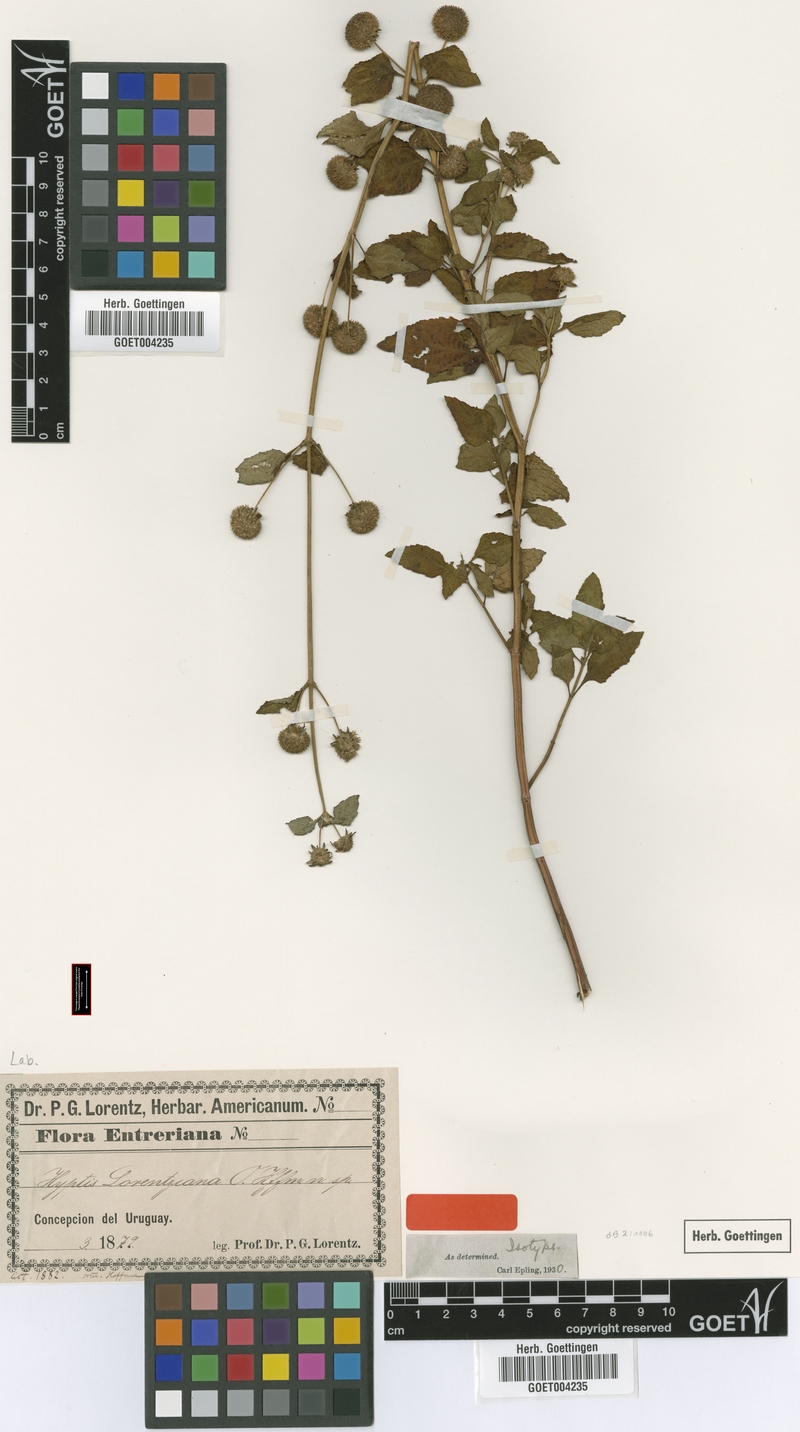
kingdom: Plantae
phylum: Tracheophyta
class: Magnoliopsida
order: Lamiales
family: Lamiaceae
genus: Hyptis
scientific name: Hyptis lorentziana
